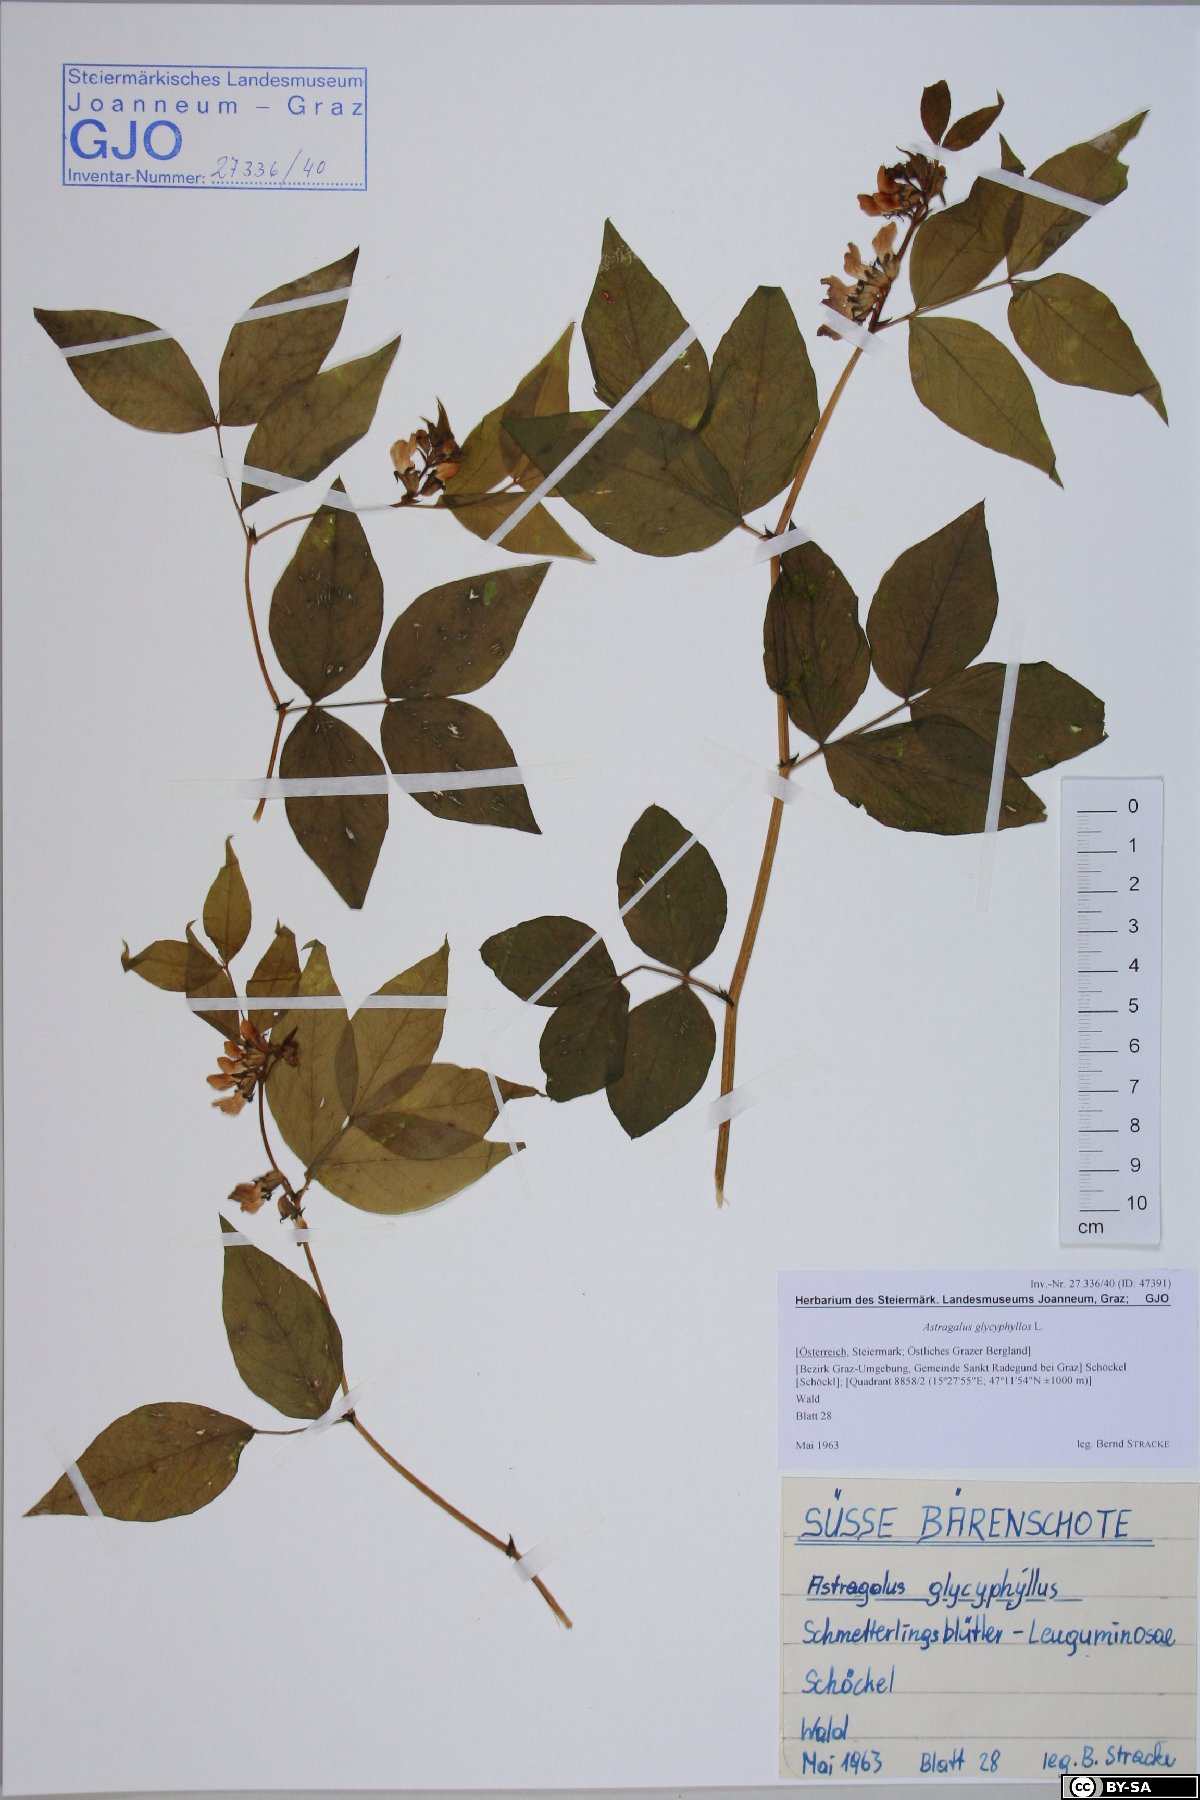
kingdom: Plantae
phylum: Tracheophyta
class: Magnoliopsida
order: Fabales
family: Fabaceae
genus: Astragalus
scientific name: Astragalus glycyphyllos
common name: Wild liquorice
